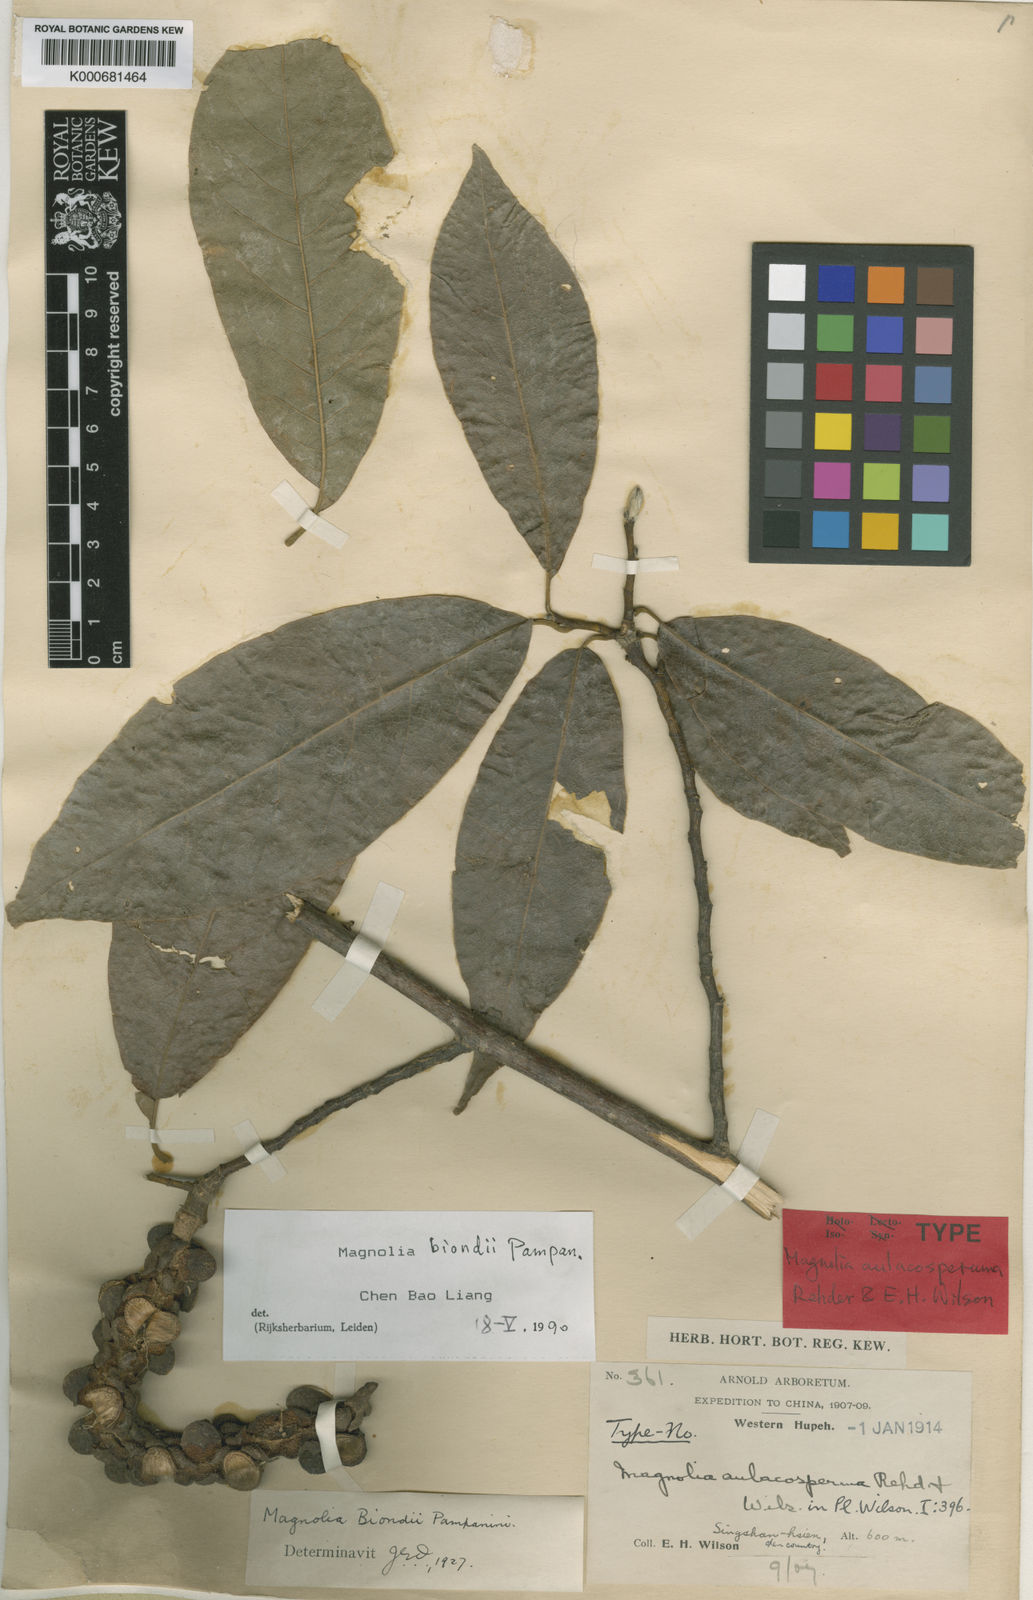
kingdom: Plantae
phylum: Tracheophyta
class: Magnoliopsida
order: Magnoliales
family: Magnoliaceae
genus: Magnolia
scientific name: Magnolia biondii
